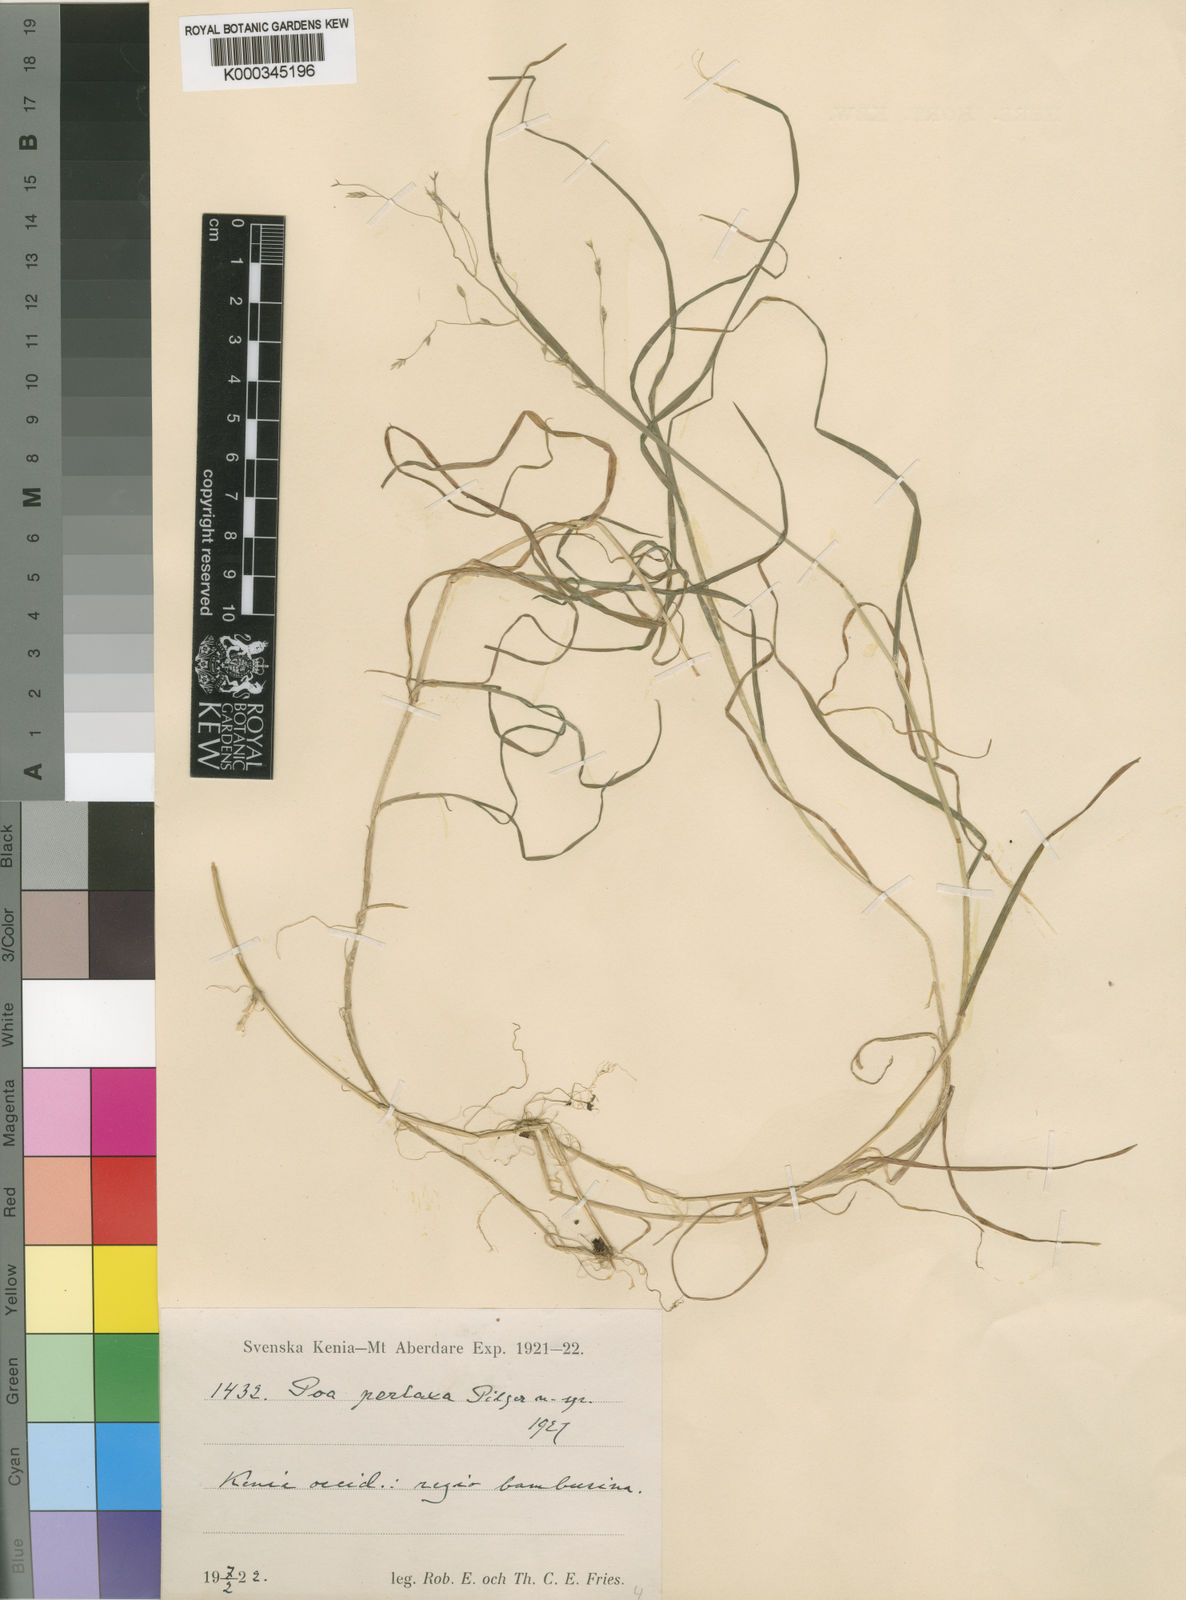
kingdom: Plantae
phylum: Tracheophyta
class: Liliopsida
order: Poales
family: Poaceae
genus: Poa
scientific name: Poa schimperiana
